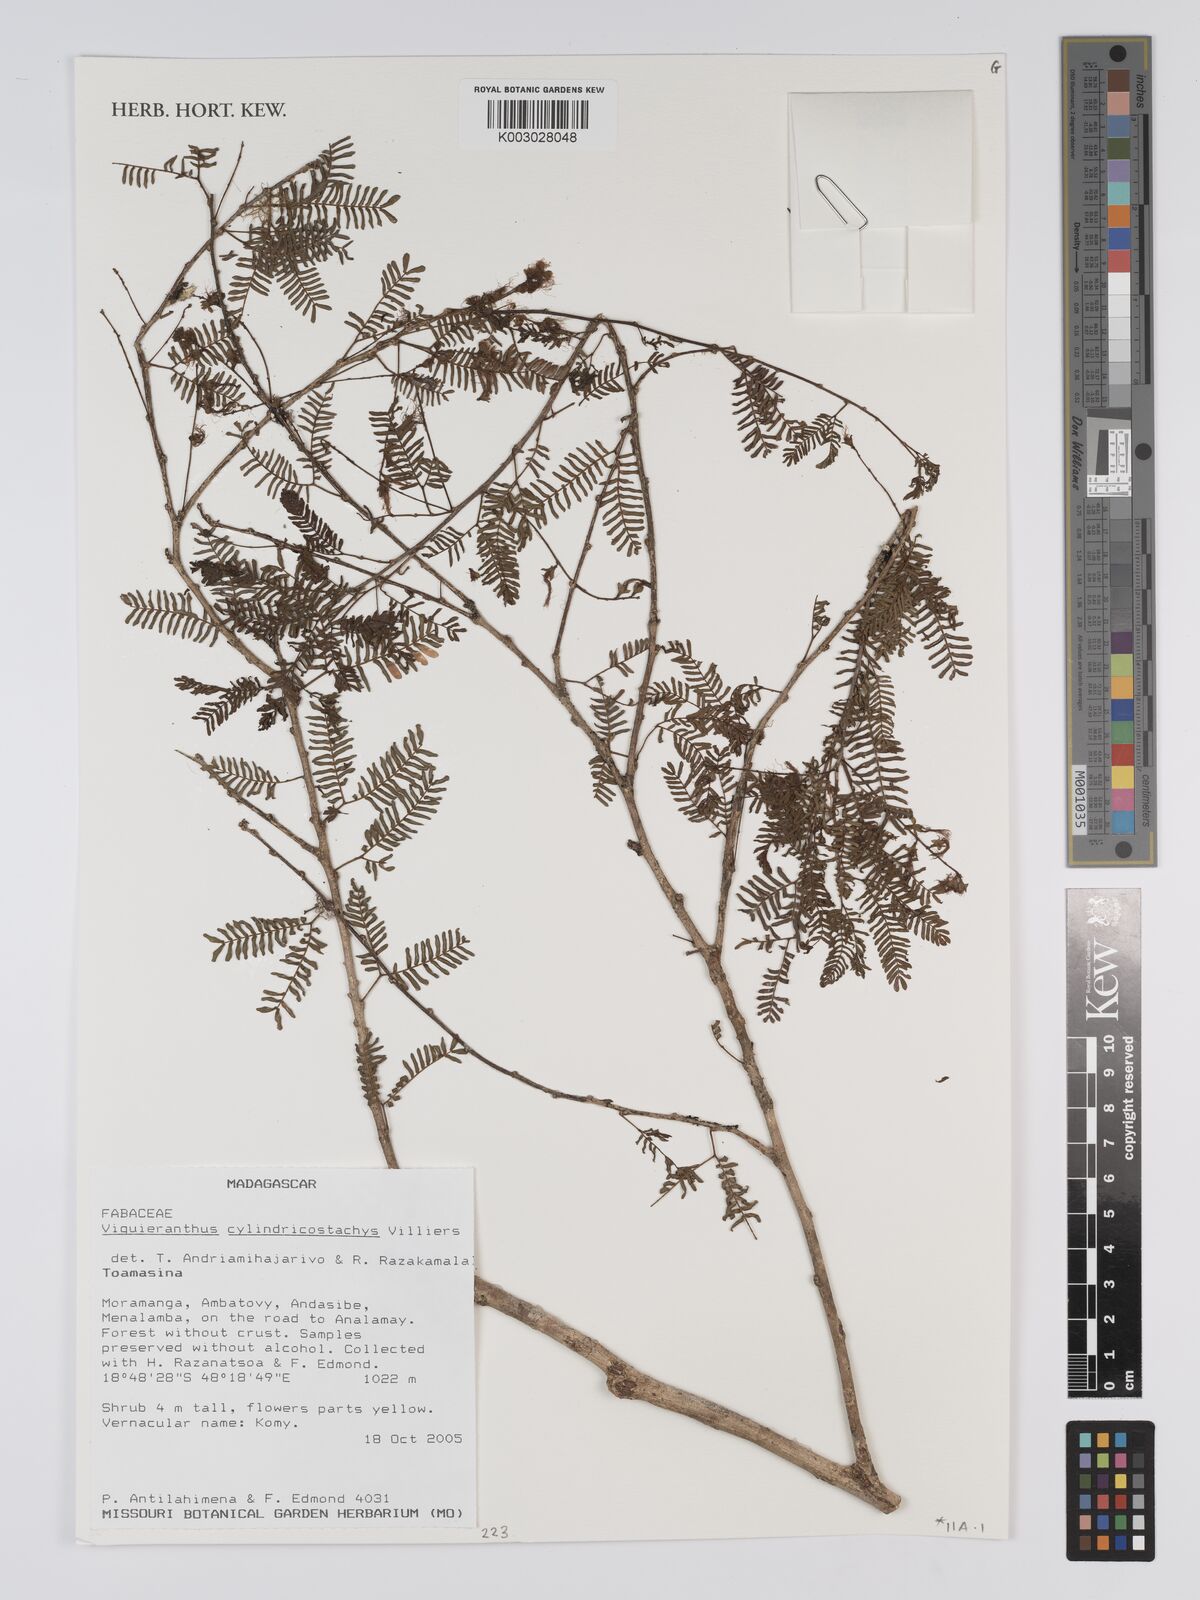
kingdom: Plantae
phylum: Tracheophyta
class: Magnoliopsida
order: Fabales
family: Fabaceae
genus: Viguieranthus
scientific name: Viguieranthus cylindricostachys
